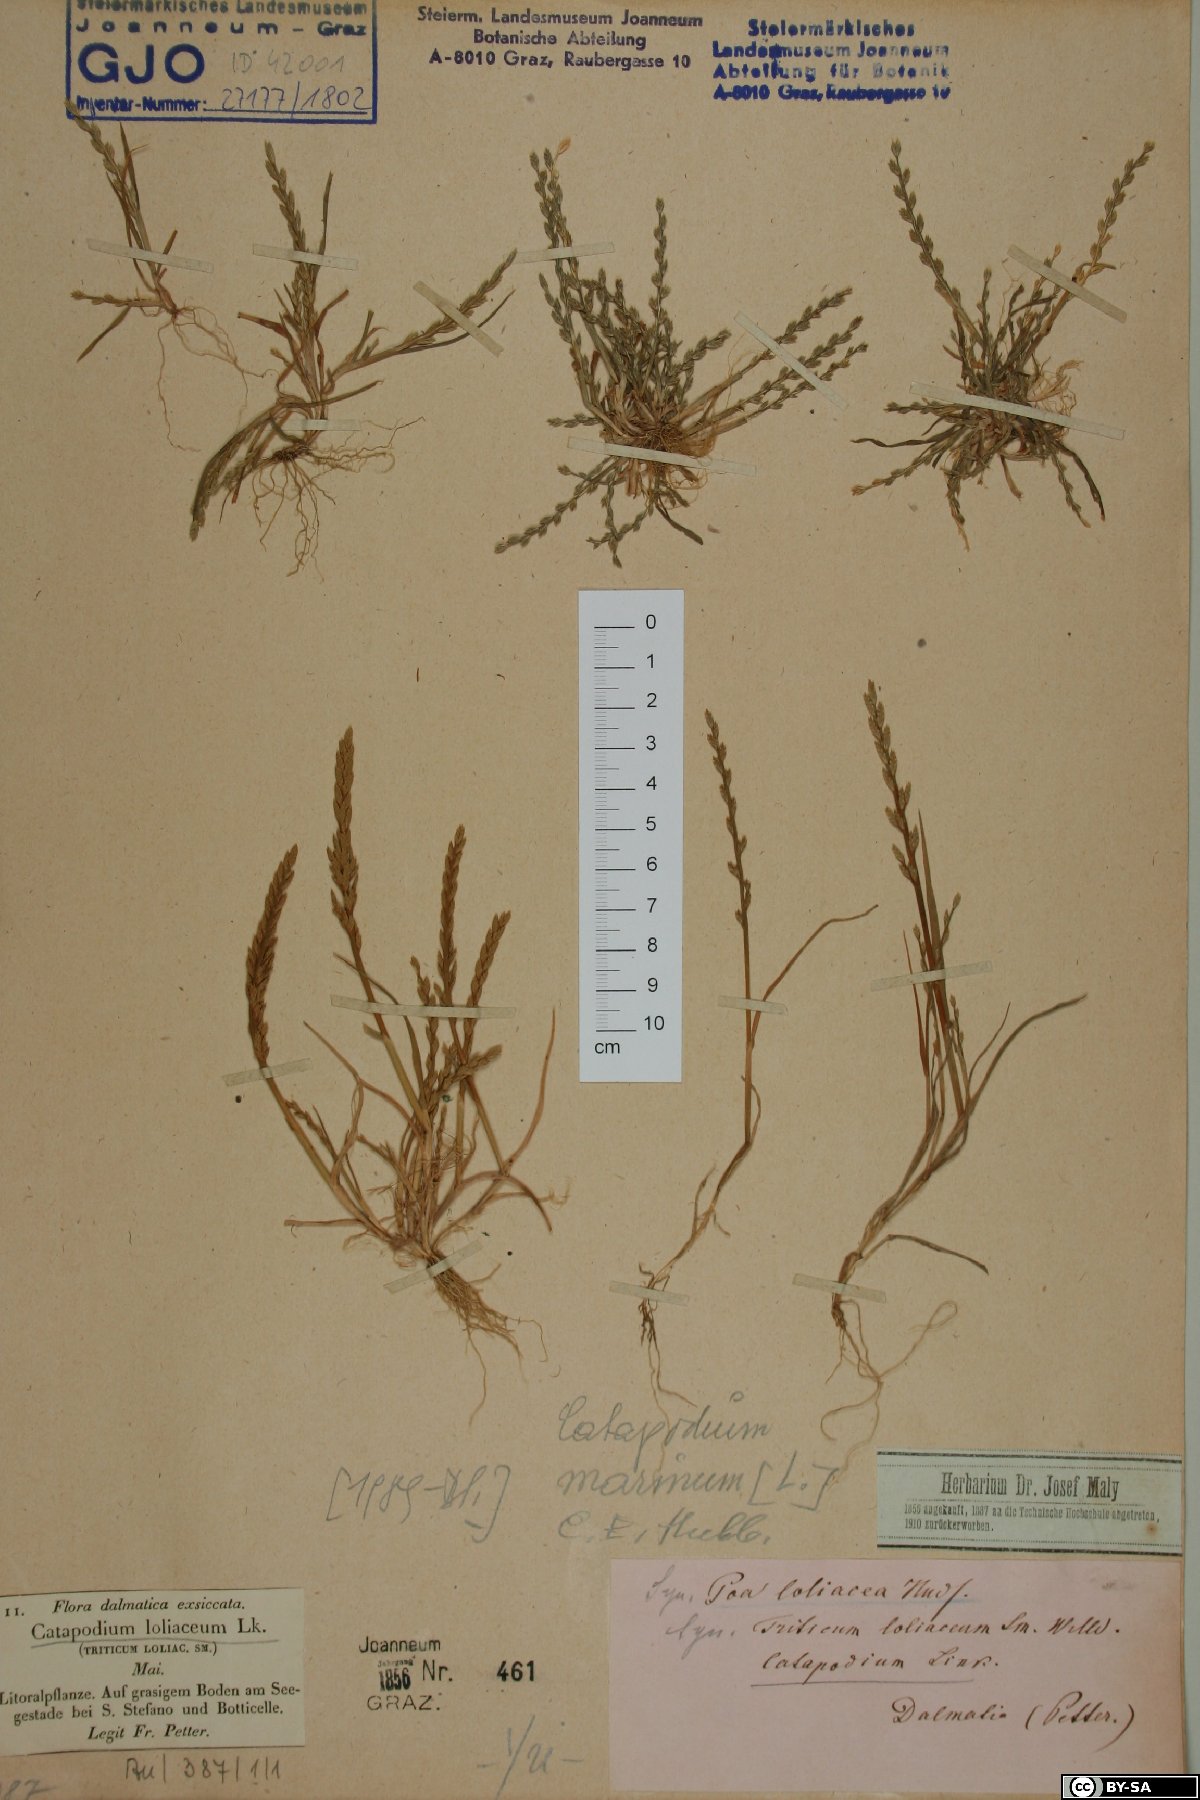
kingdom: Plantae
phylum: Tracheophyta
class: Liliopsida
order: Poales
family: Poaceae
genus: Catapodium
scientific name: Catapodium marinum
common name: Sea fern-grass
